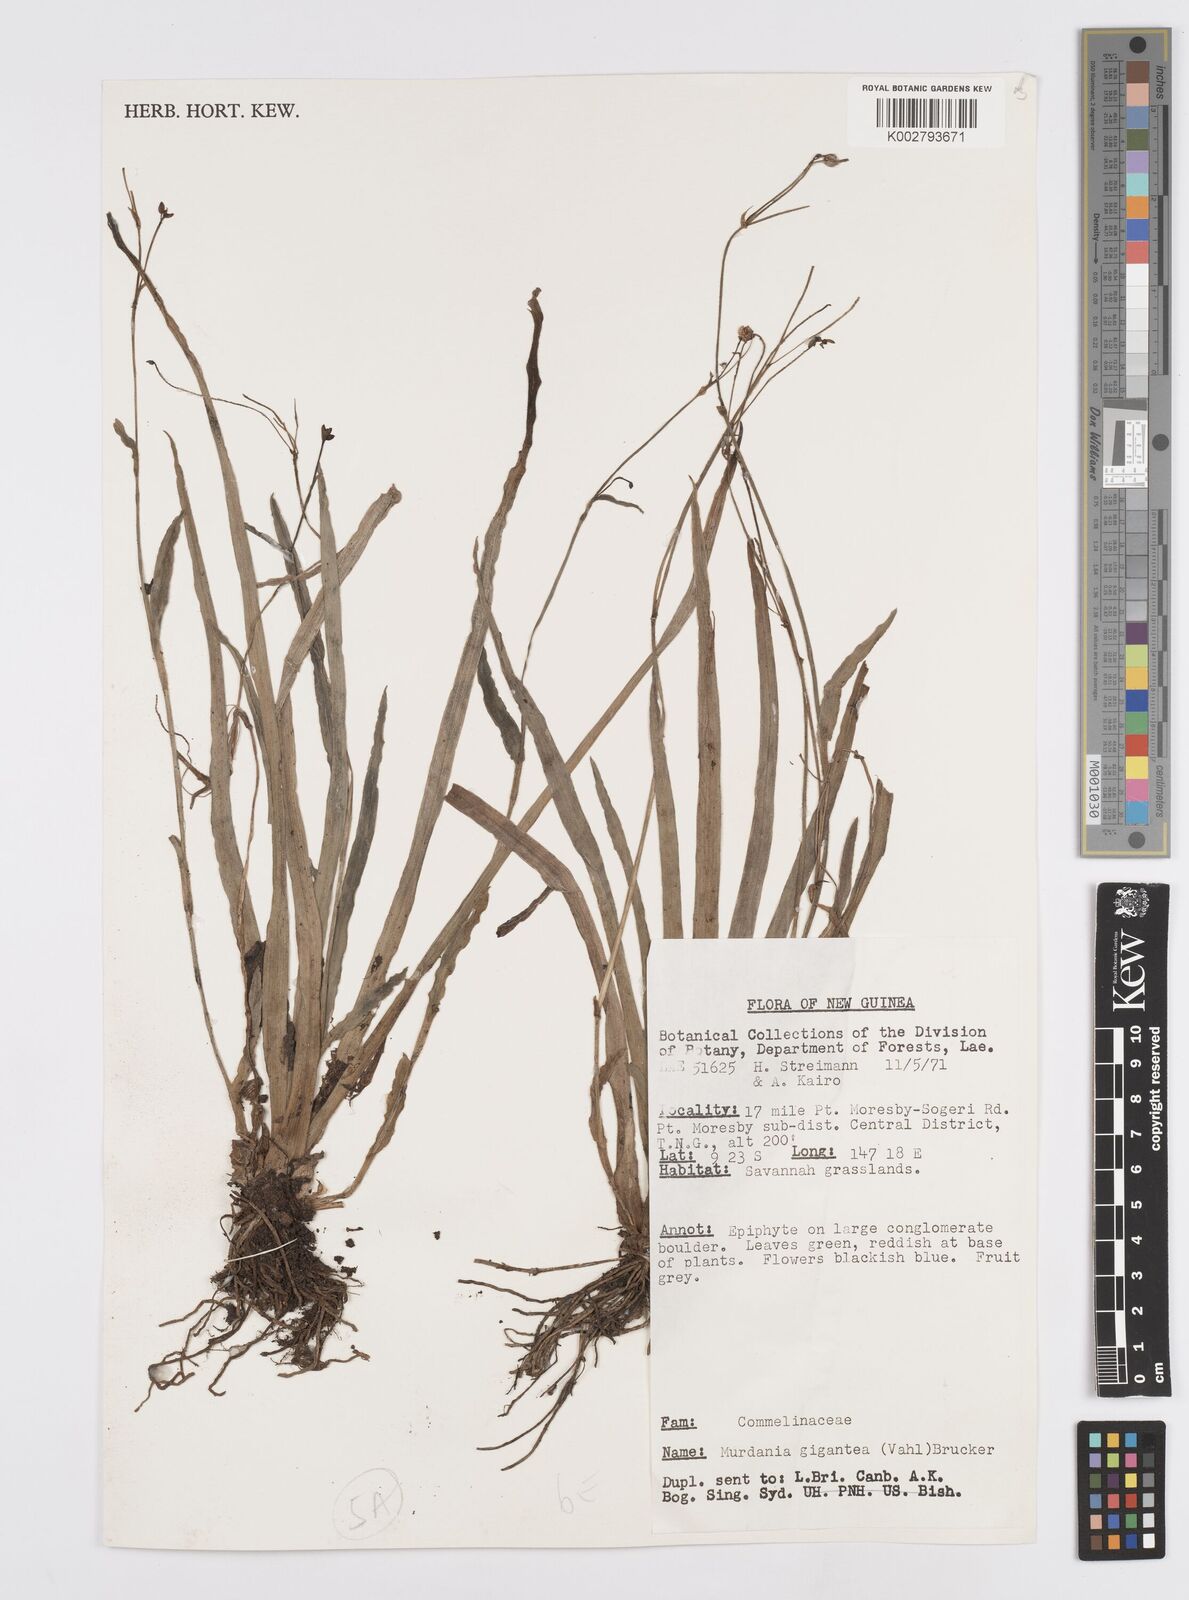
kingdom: Plantae
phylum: Tracheophyta
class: Liliopsida
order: Commelinales
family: Commelinaceae
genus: Murdannia
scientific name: Murdannia gigantea
